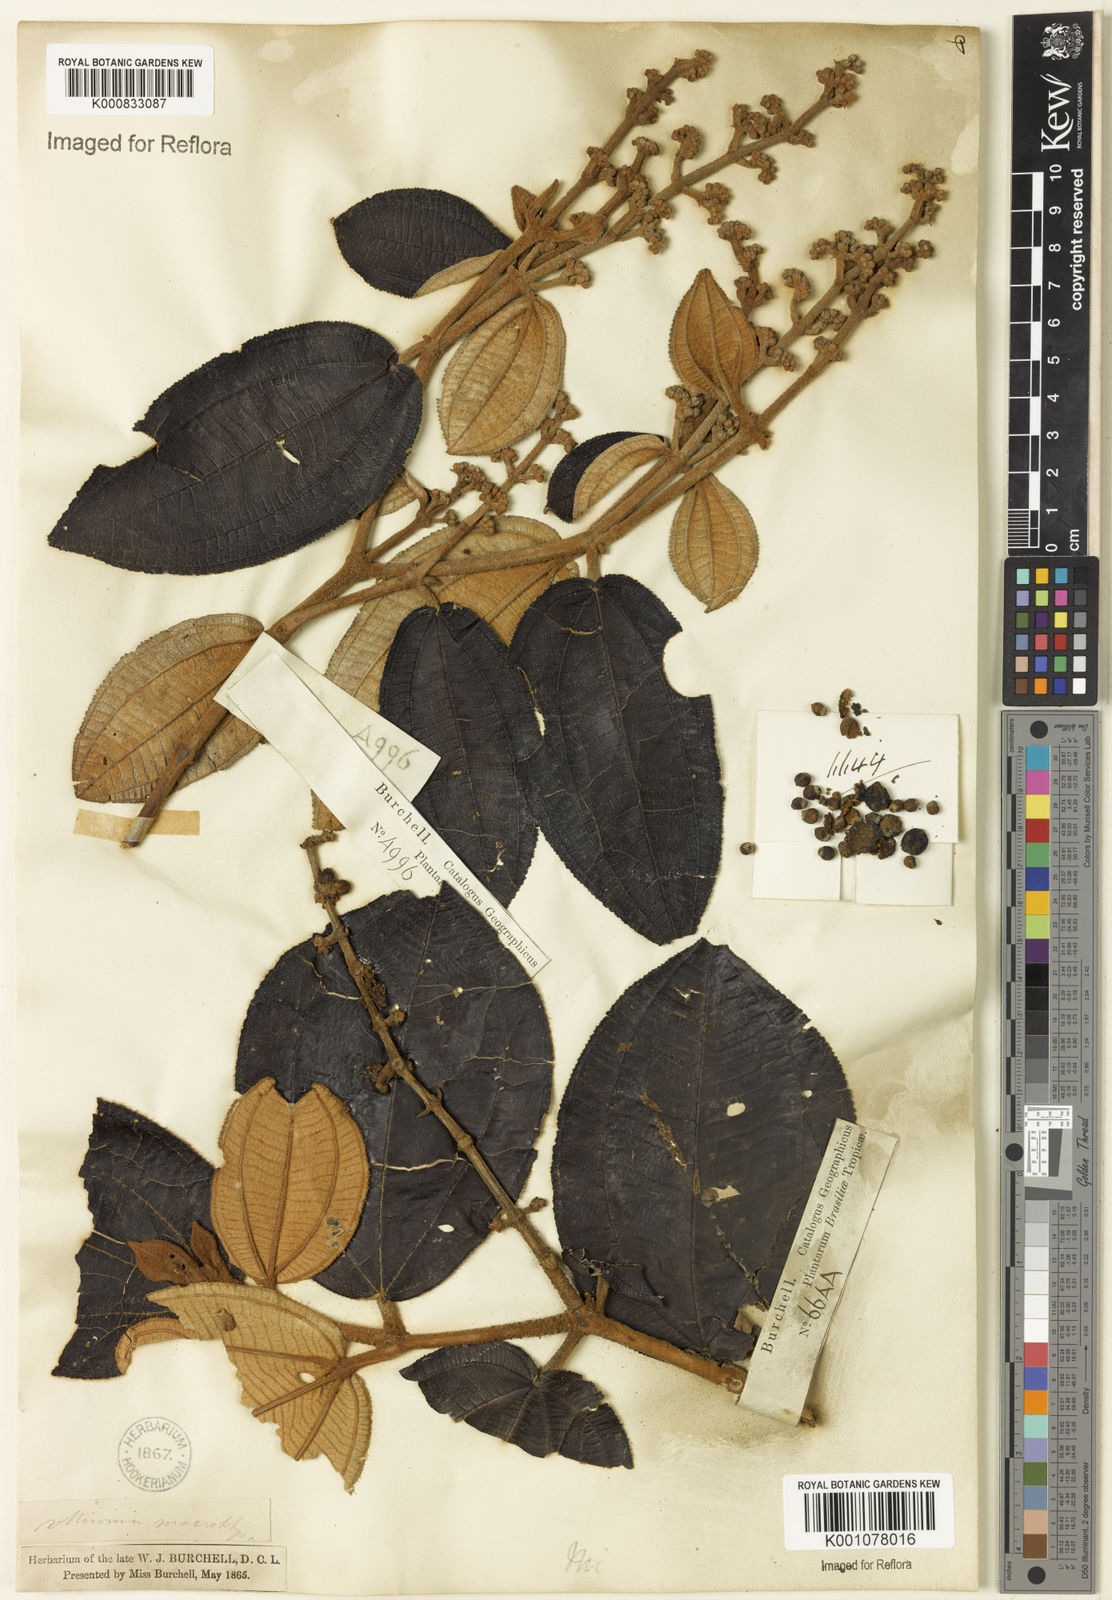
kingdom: Plantae
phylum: Tracheophyta
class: Magnoliopsida
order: Myrtales
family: Melastomataceae
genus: Miconia
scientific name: Miconia macrothyrsa
